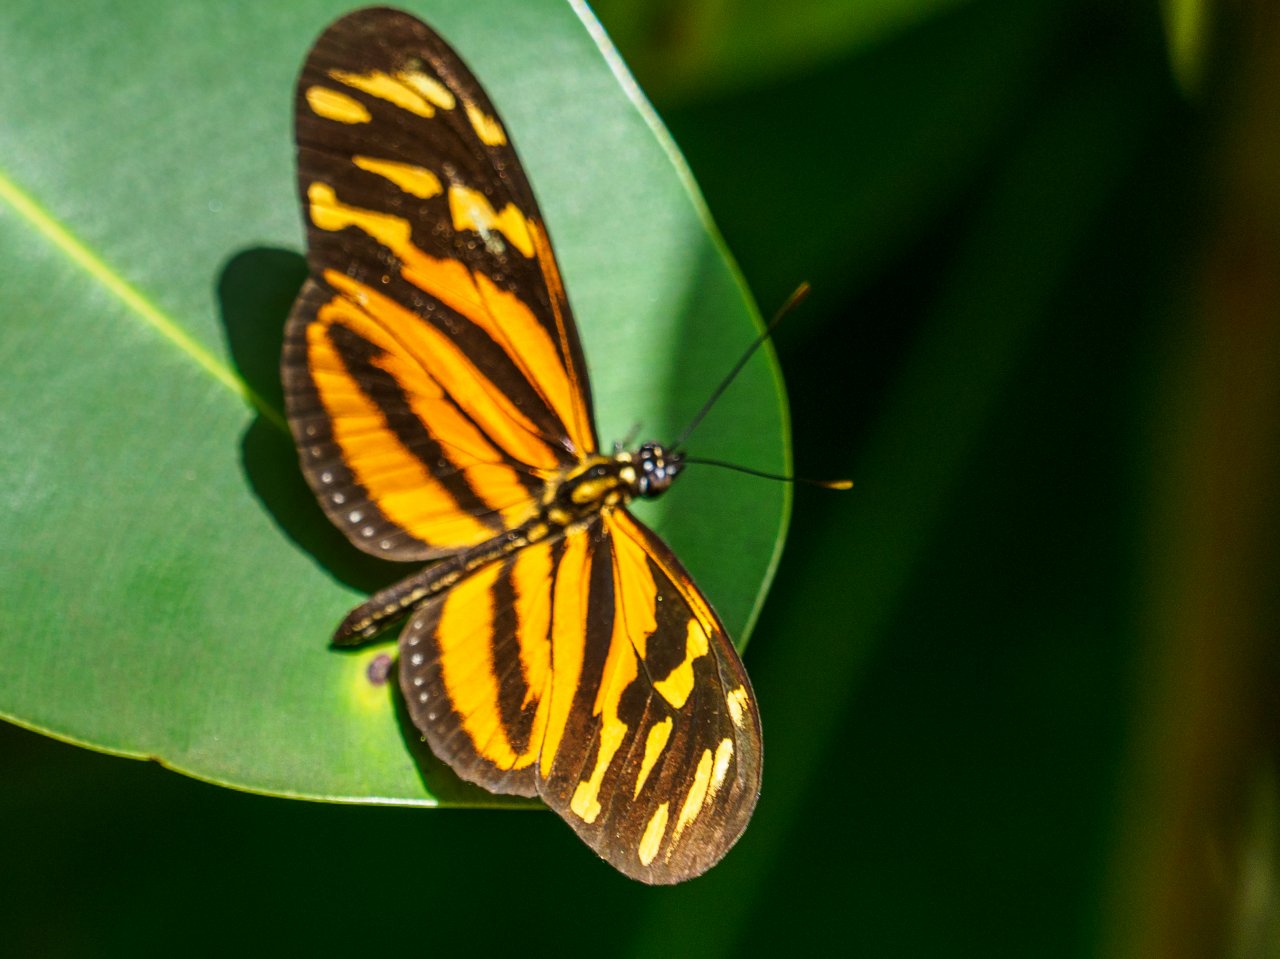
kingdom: Animalia
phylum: Arthropoda
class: Insecta
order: Lepidoptera
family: Nymphalidae
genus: Eueides
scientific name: Eueides isabella
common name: Isabella's Heliconian
